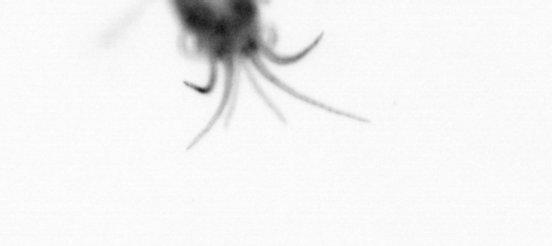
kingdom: Animalia
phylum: Arthropoda
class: Maxillopoda
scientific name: Maxillopoda
